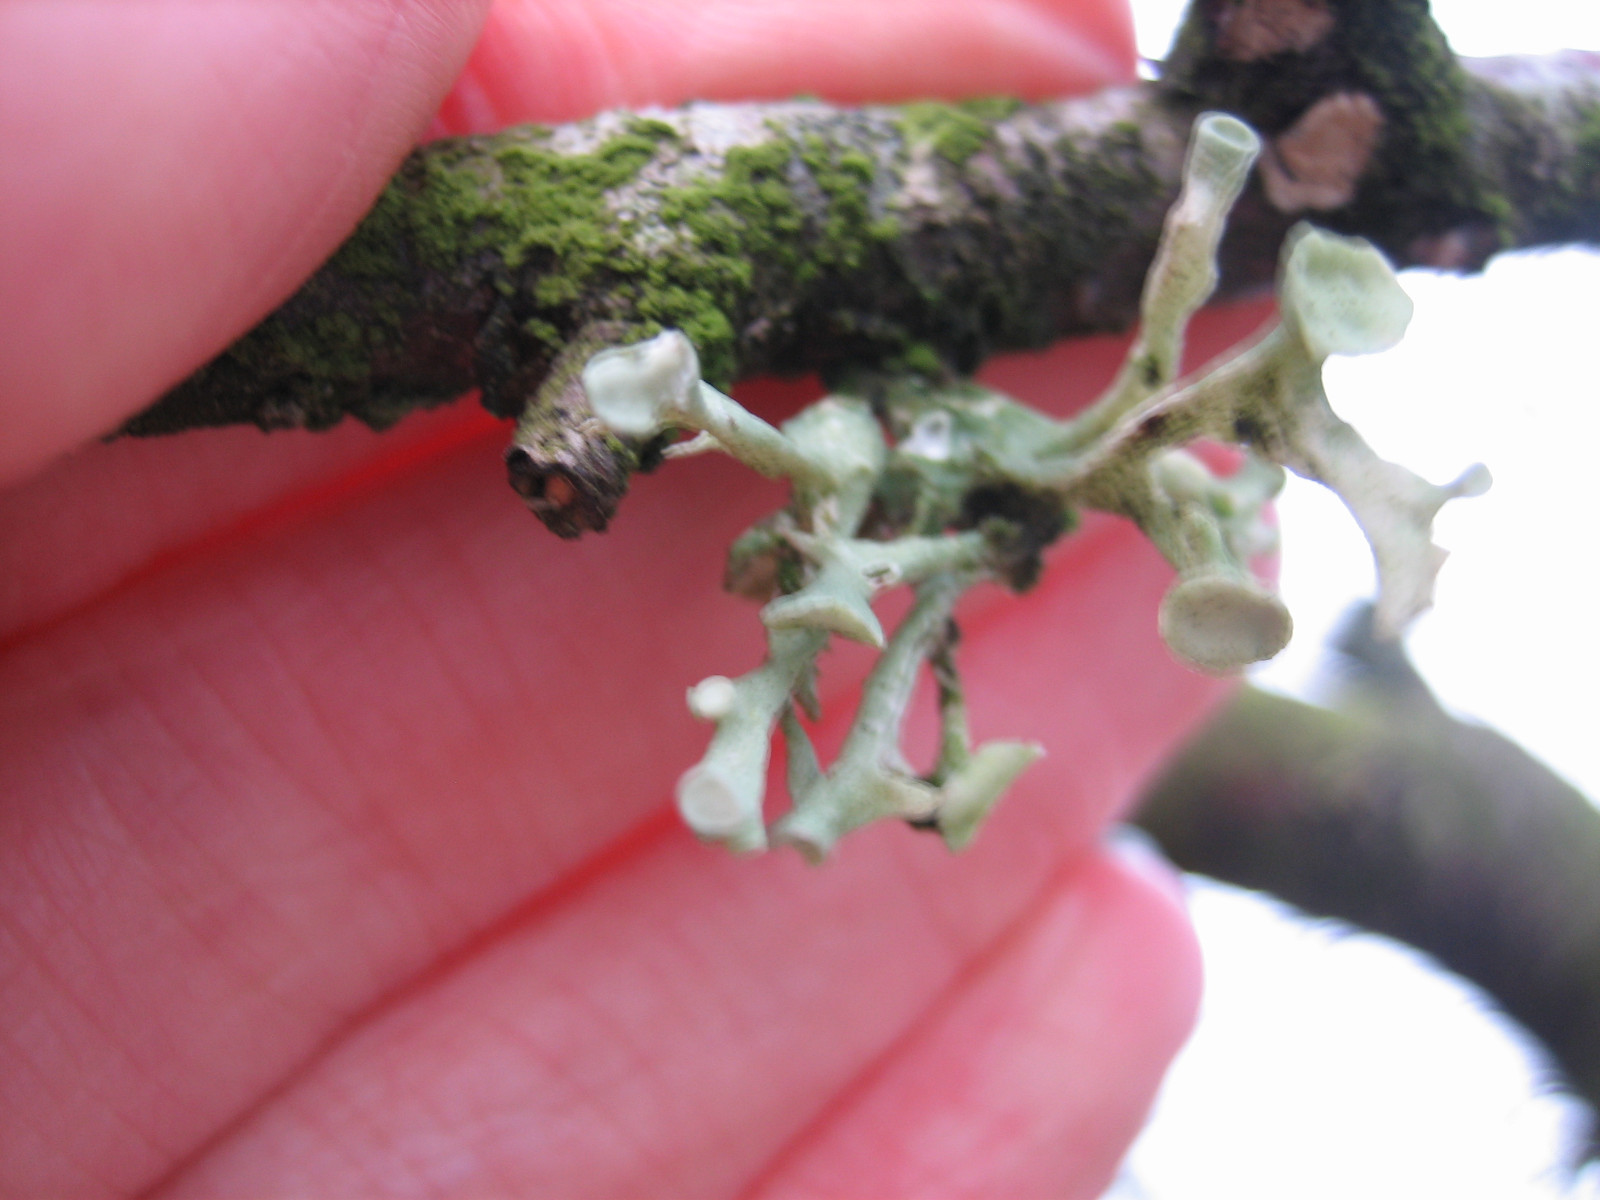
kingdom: Fungi
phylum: Ascomycota
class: Lecanoromycetes
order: Lecanorales
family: Ramalinaceae
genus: Ramalina
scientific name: Ramalina fastigiata
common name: tue-grenlav
